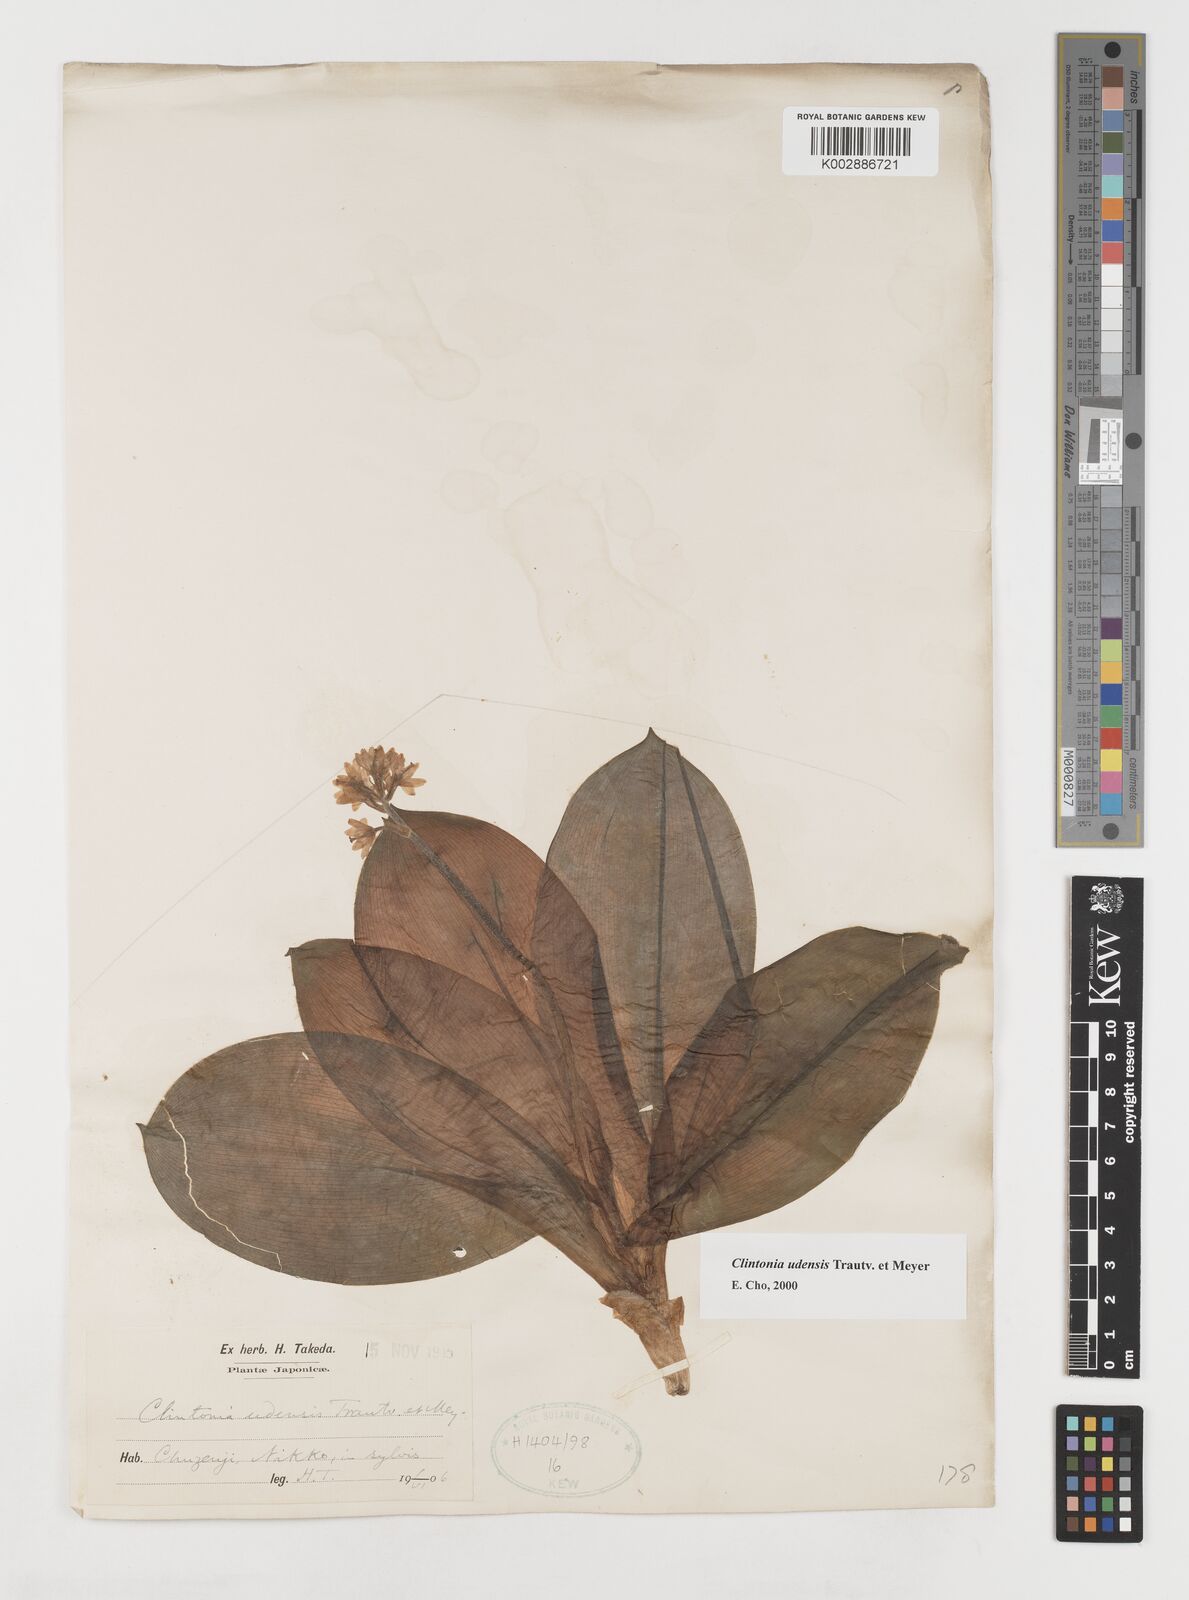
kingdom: Plantae
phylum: Tracheophyta
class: Liliopsida
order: Liliales
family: Liliaceae
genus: Clintonia
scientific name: Clintonia udensis
